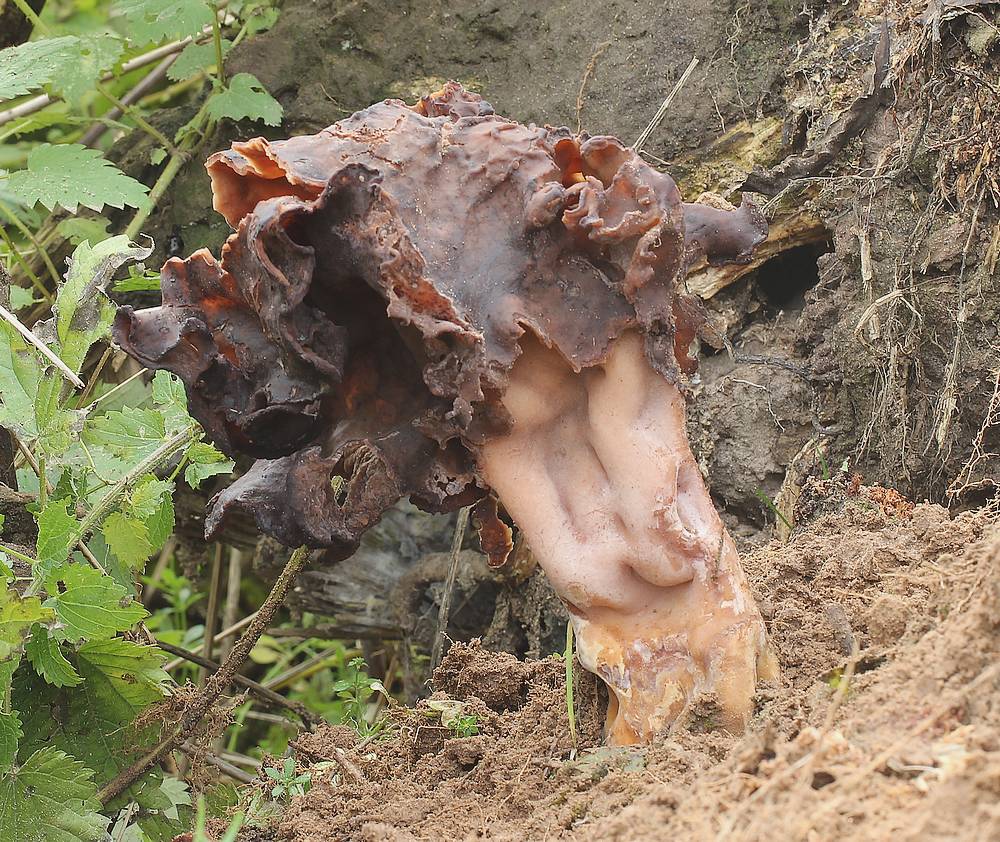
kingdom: Fungi
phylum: Ascomycota
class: Pezizomycetes
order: Pezizales
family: Discinaceae
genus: Gyromitra
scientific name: Gyromitra infula
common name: bispehue-stenmorkel
